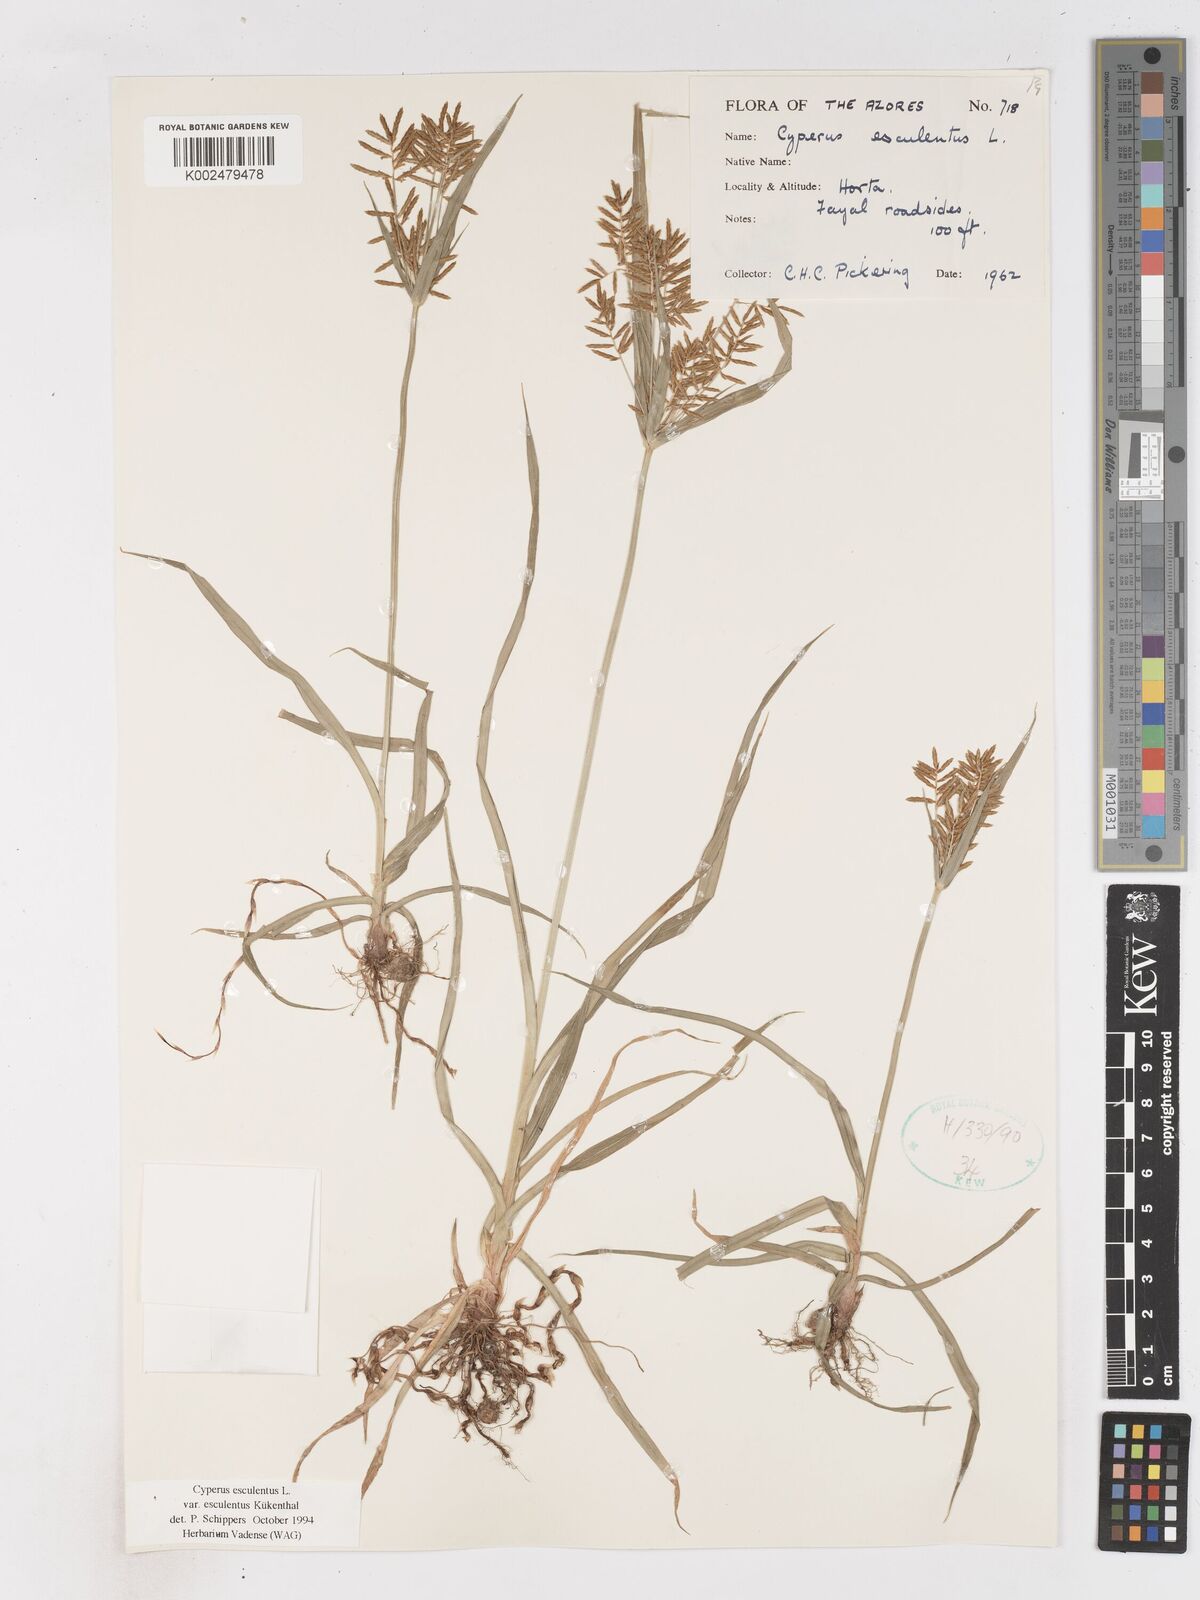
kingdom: Plantae
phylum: Tracheophyta
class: Liliopsida
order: Poales
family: Cyperaceae
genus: Cyperus
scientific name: Cyperus esculentus
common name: Yellow nutsedge
